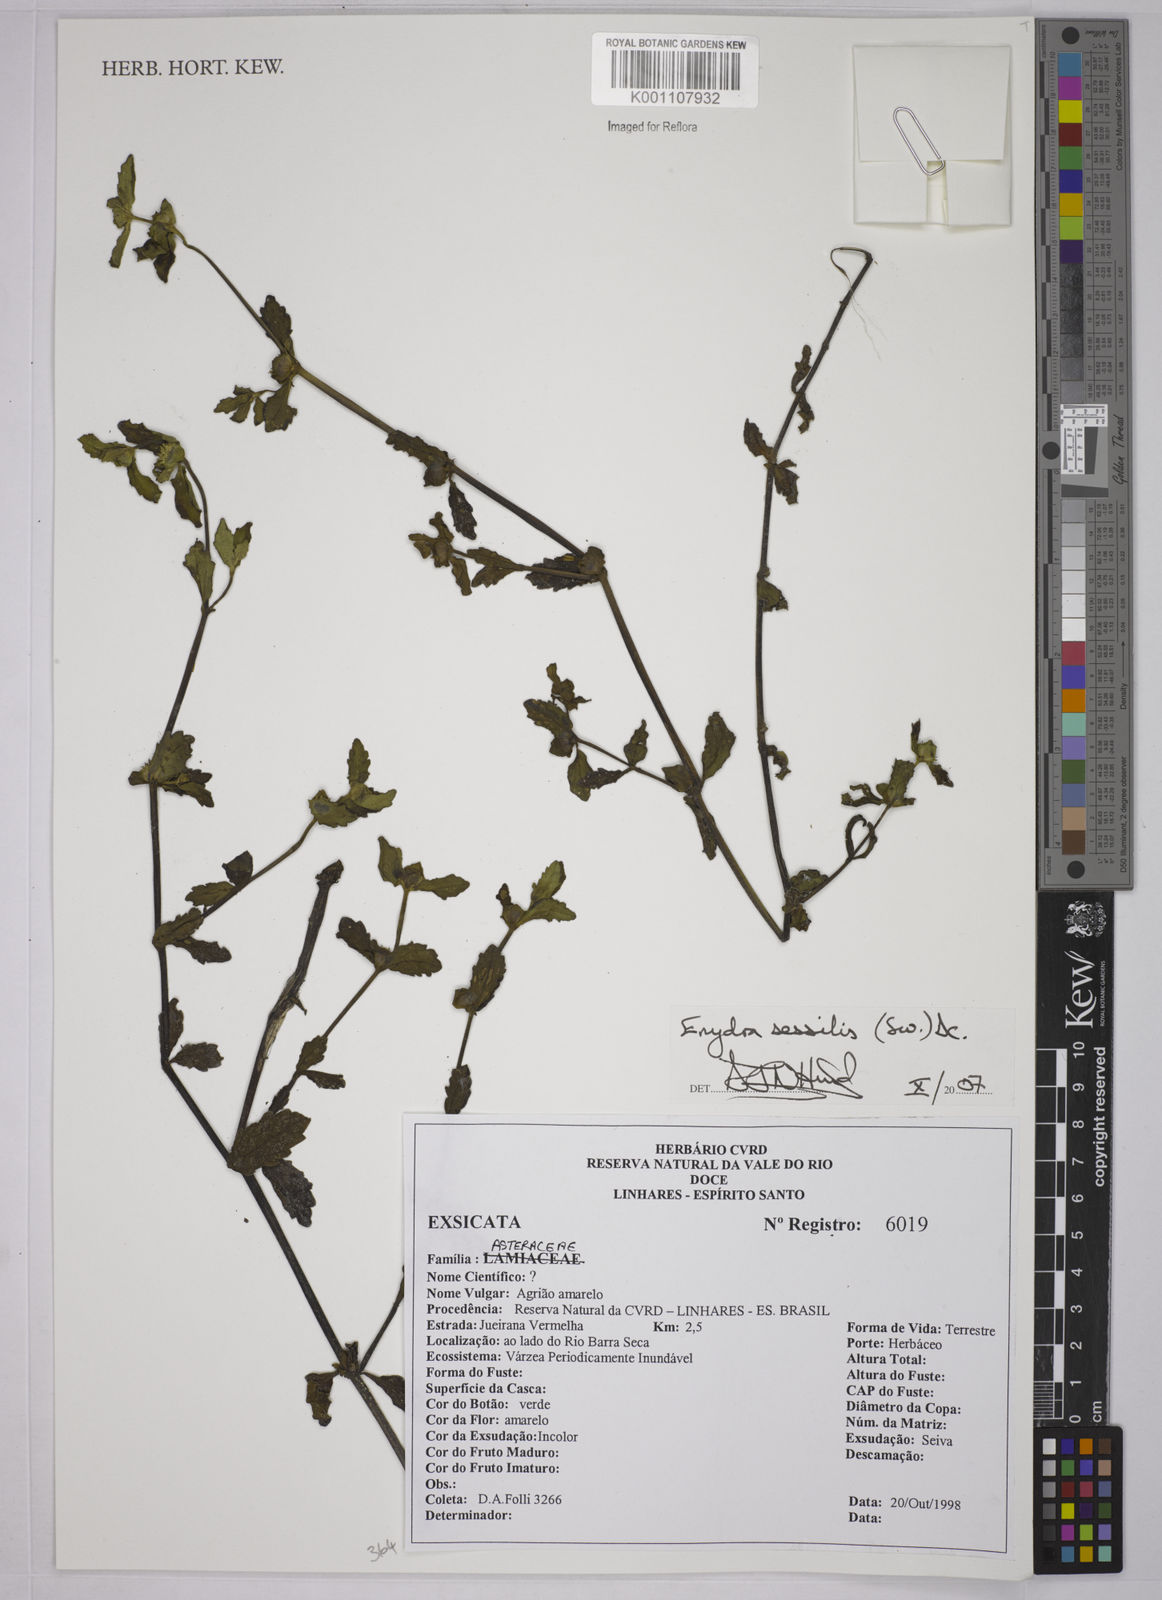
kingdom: Plantae
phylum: Tracheophyta
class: Magnoliopsida
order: Asterales
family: Asteraceae
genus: Enydra
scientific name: Enydra sessilis
